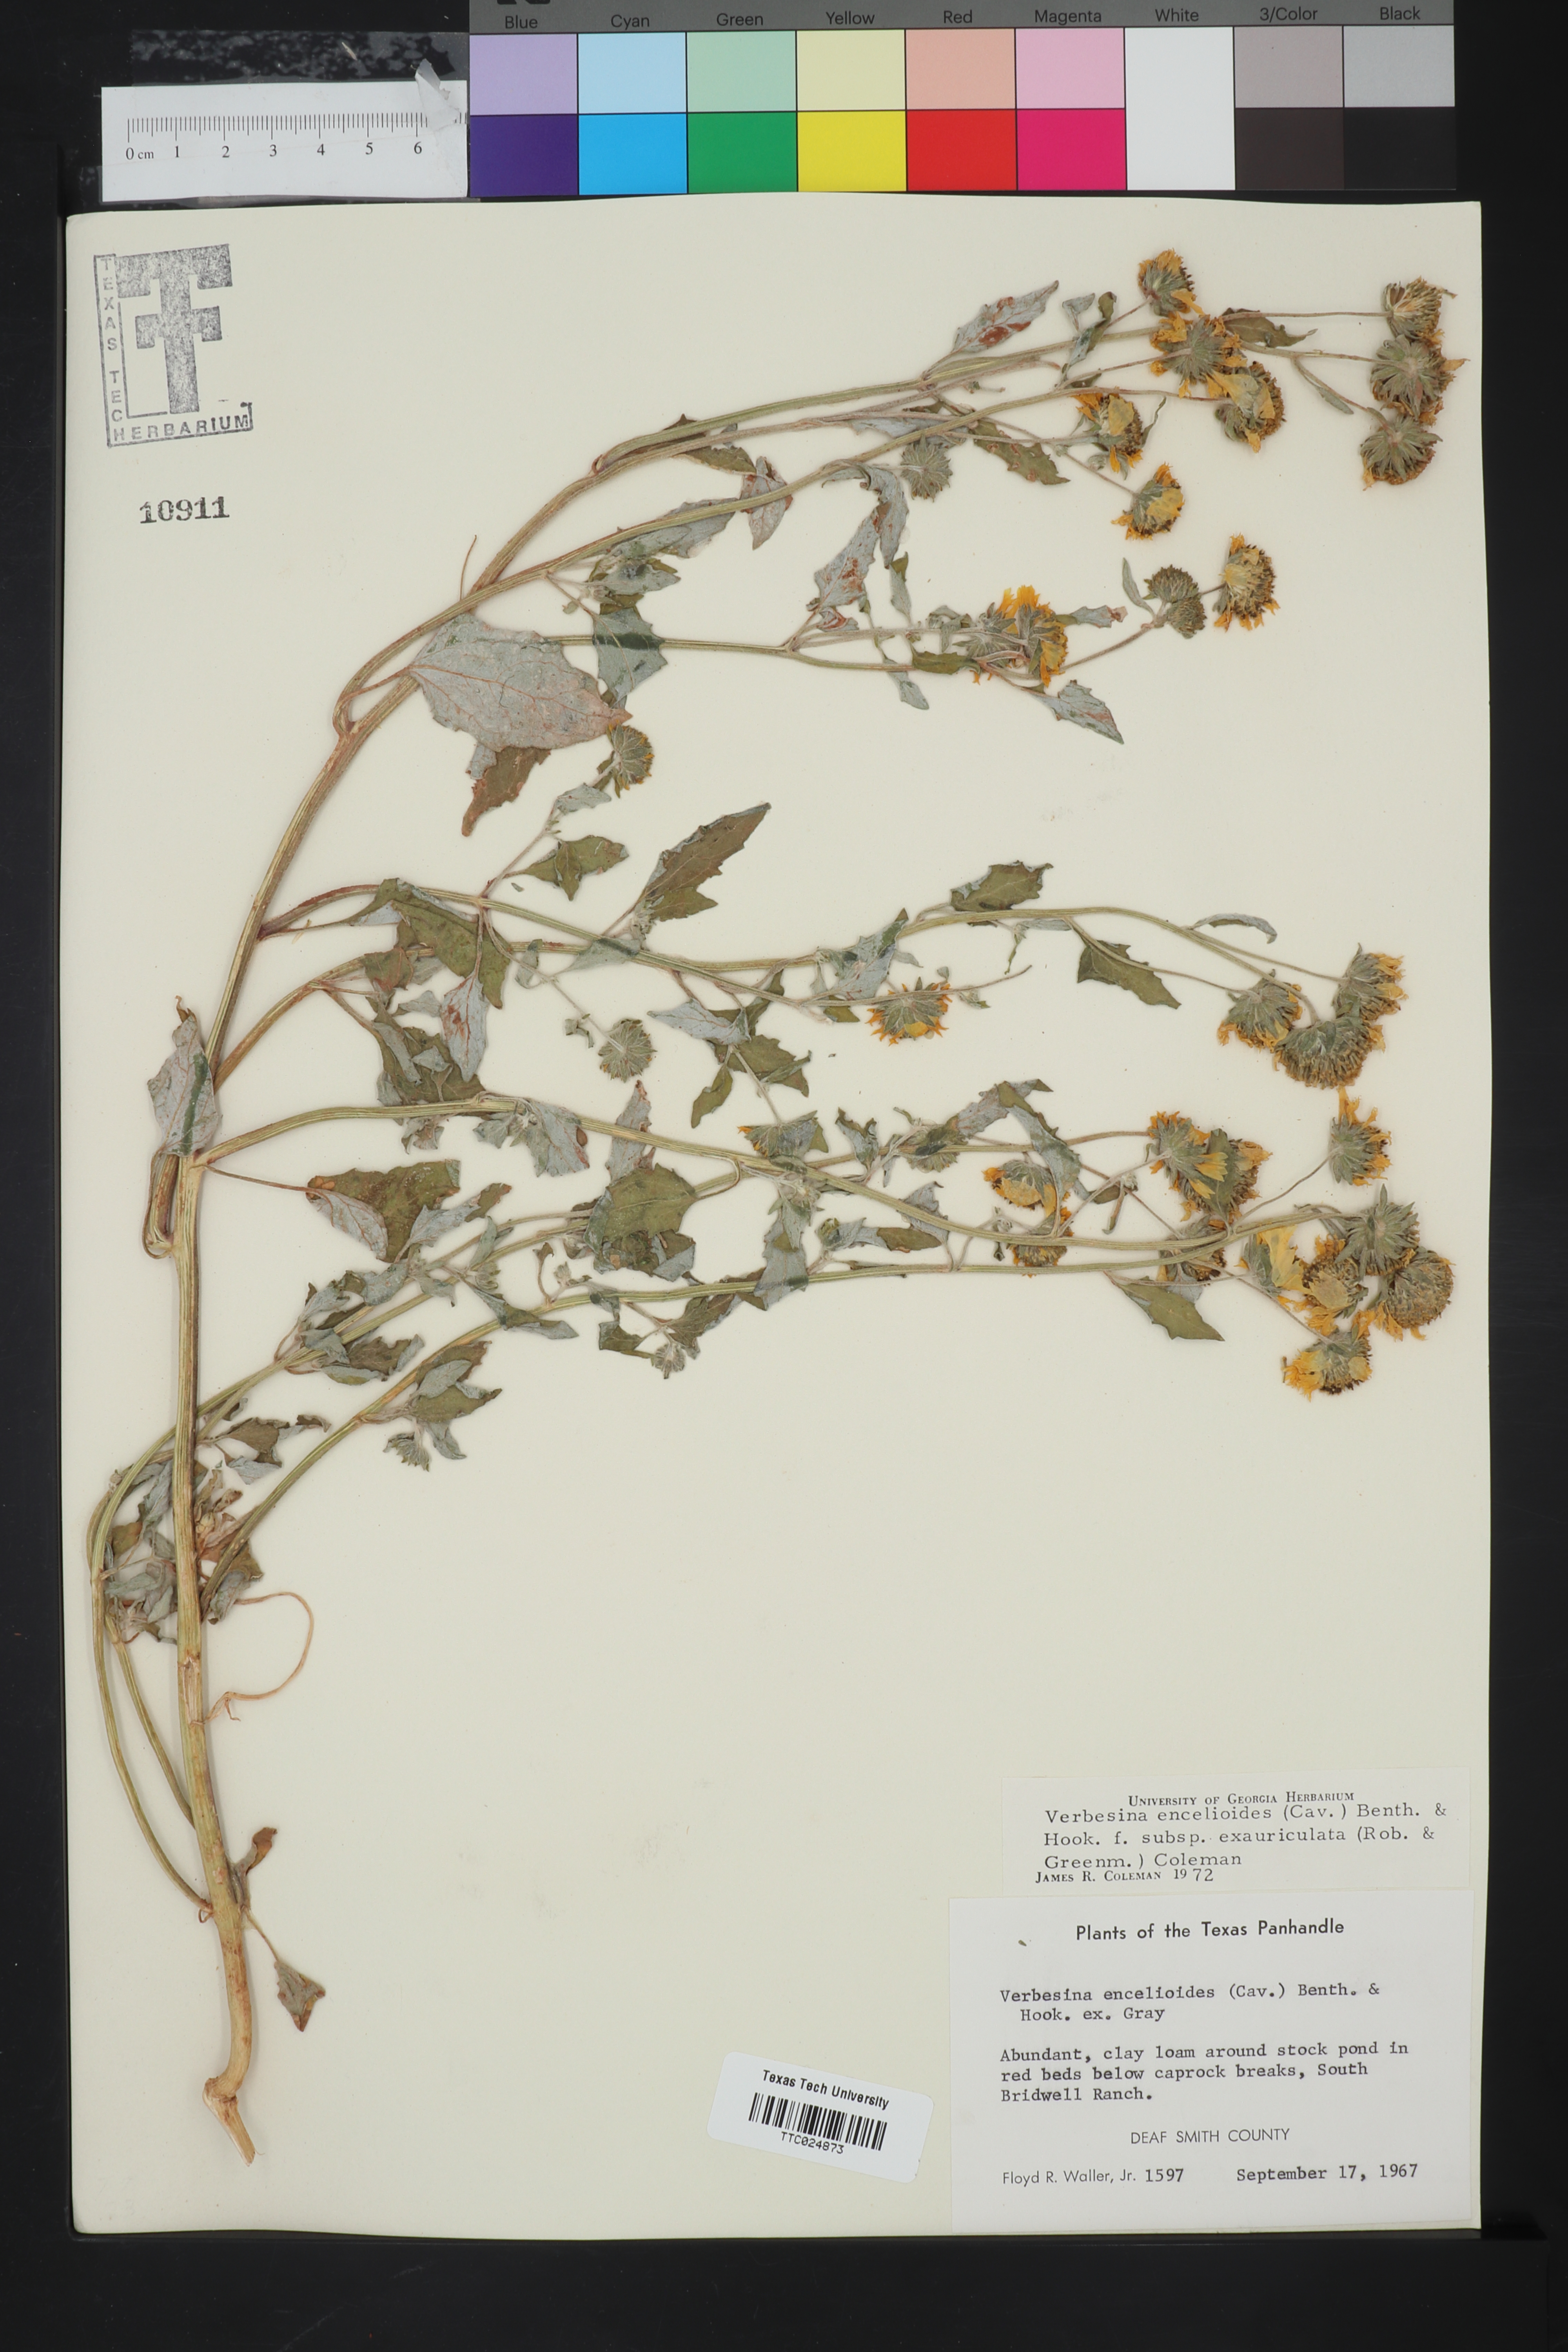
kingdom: Plantae
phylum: Tracheophyta
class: Magnoliopsida
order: Asterales
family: Asteraceae
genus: Verbesina
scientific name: Verbesina encelioides
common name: Golden crownbeard
